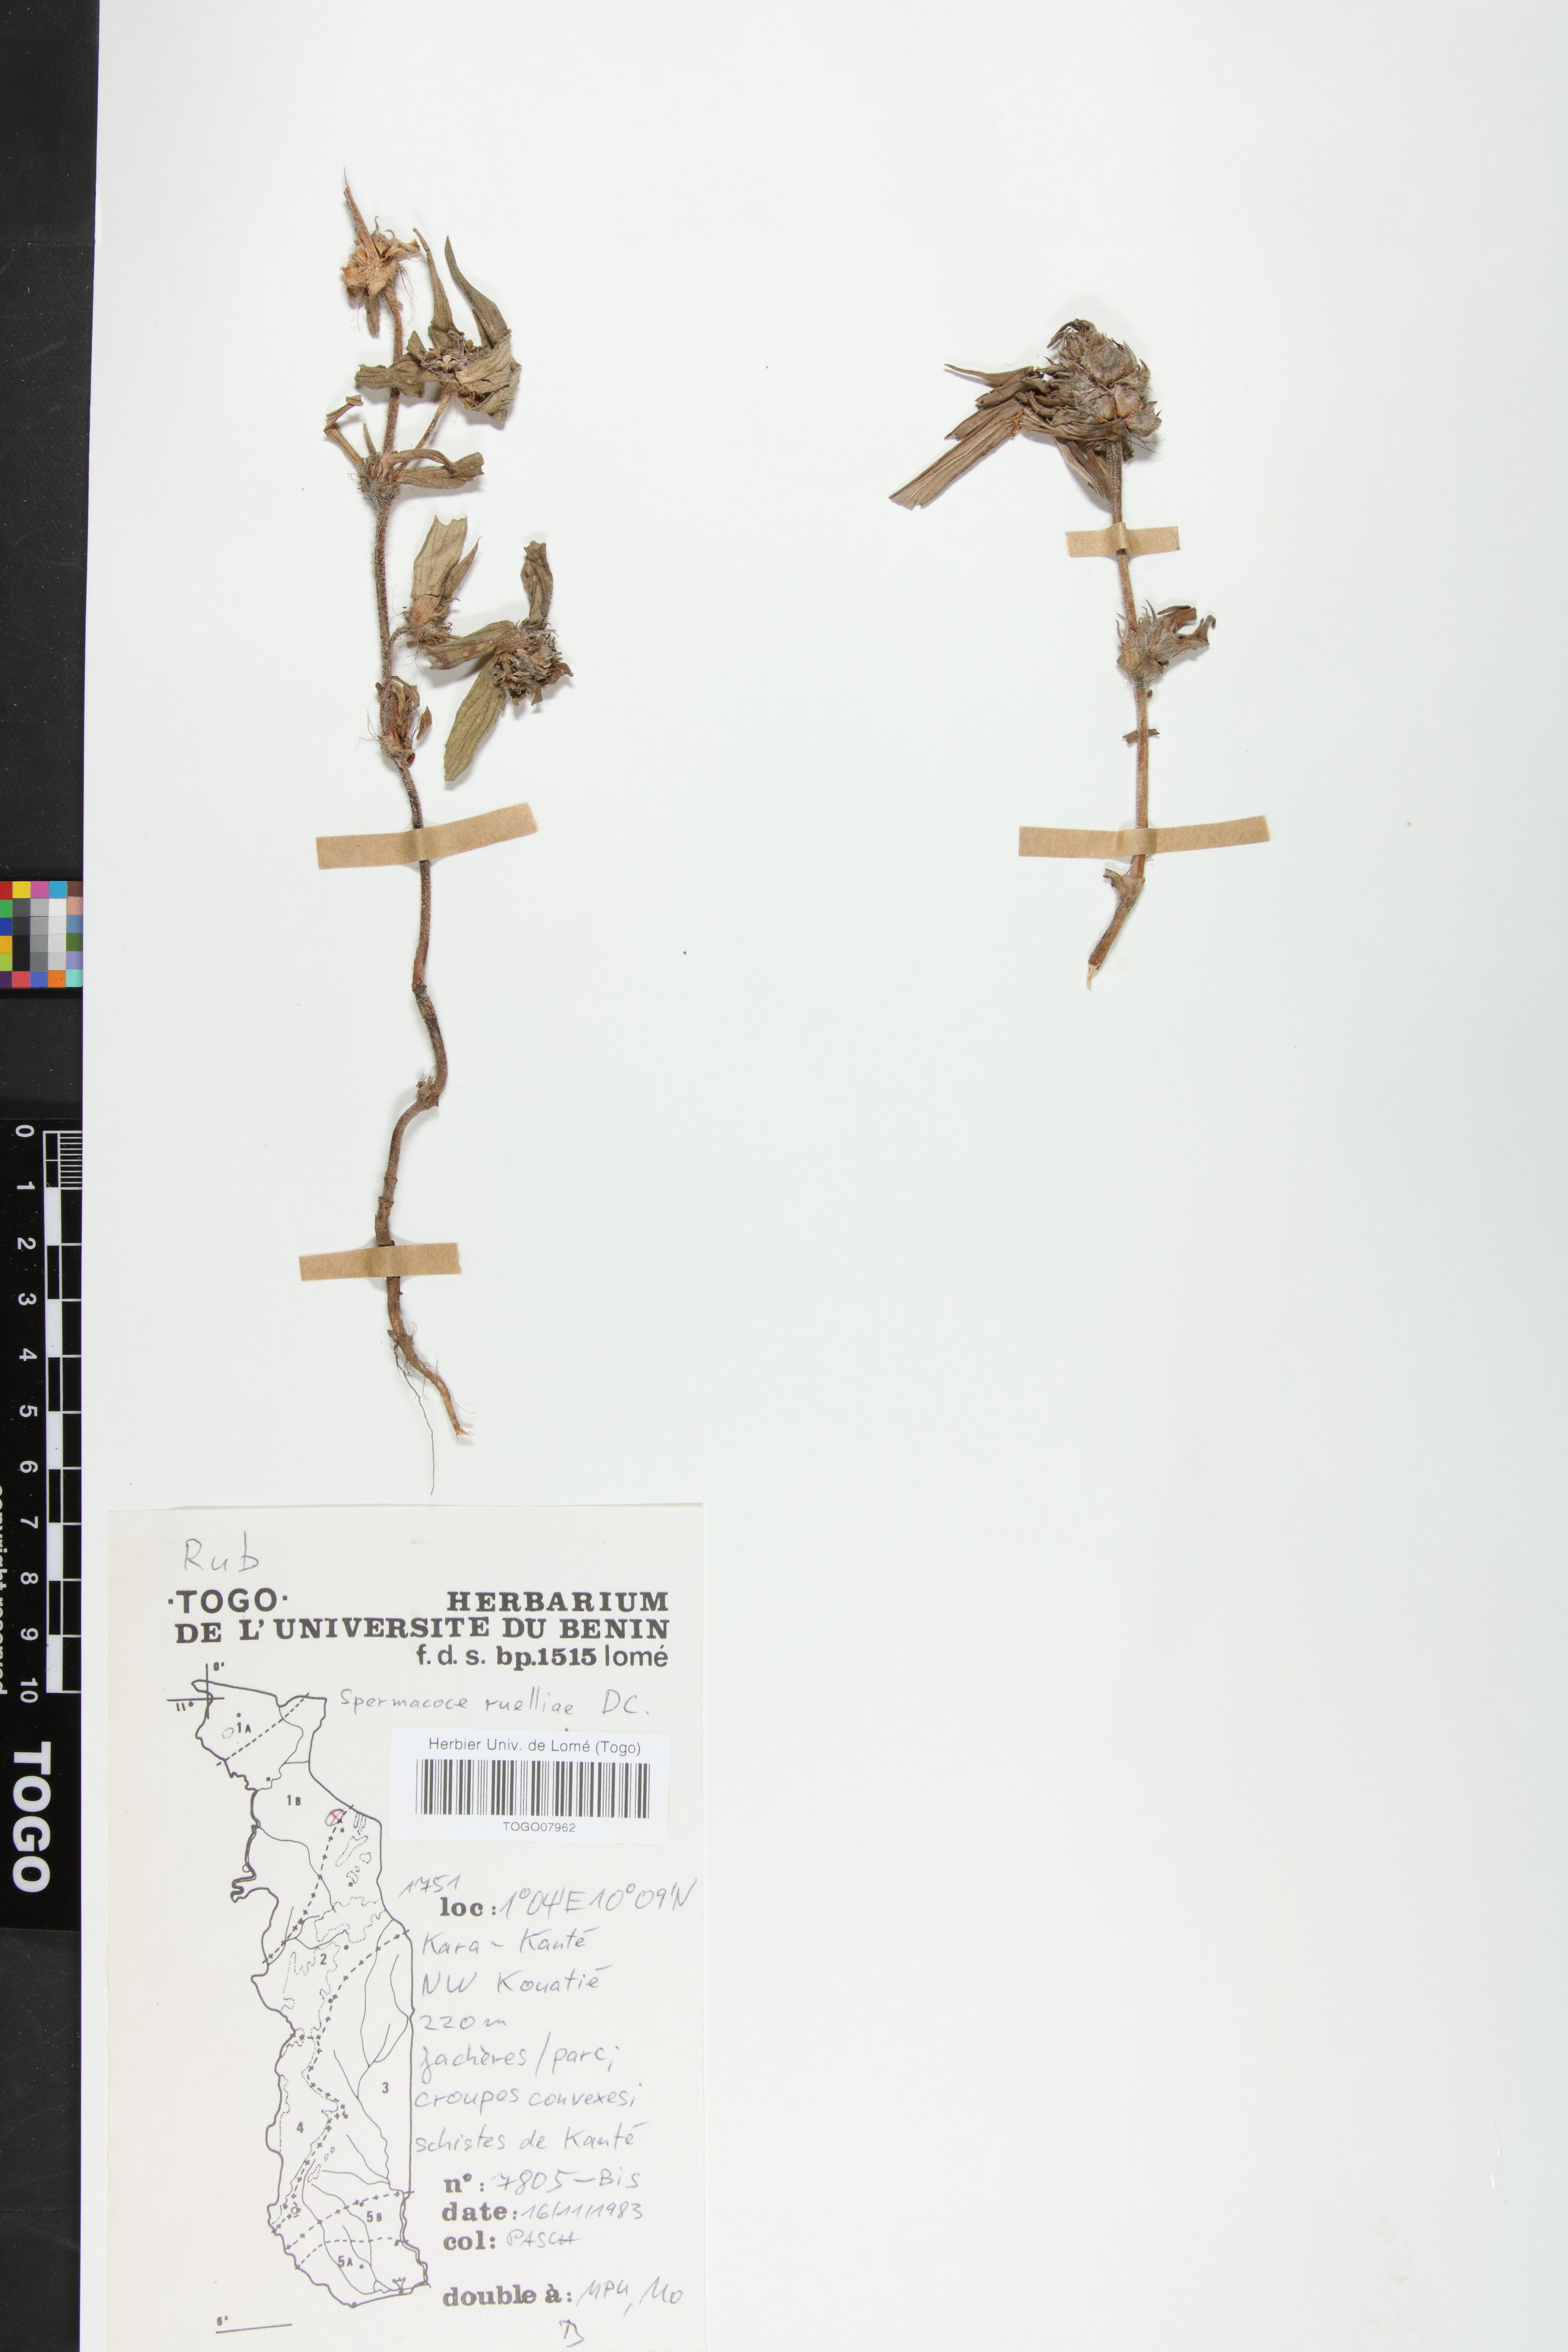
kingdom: Plantae
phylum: Tracheophyta
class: Magnoliopsida
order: Gentianales
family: Rubiaceae
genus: Spermacoce
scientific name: Spermacoce ruelliae
